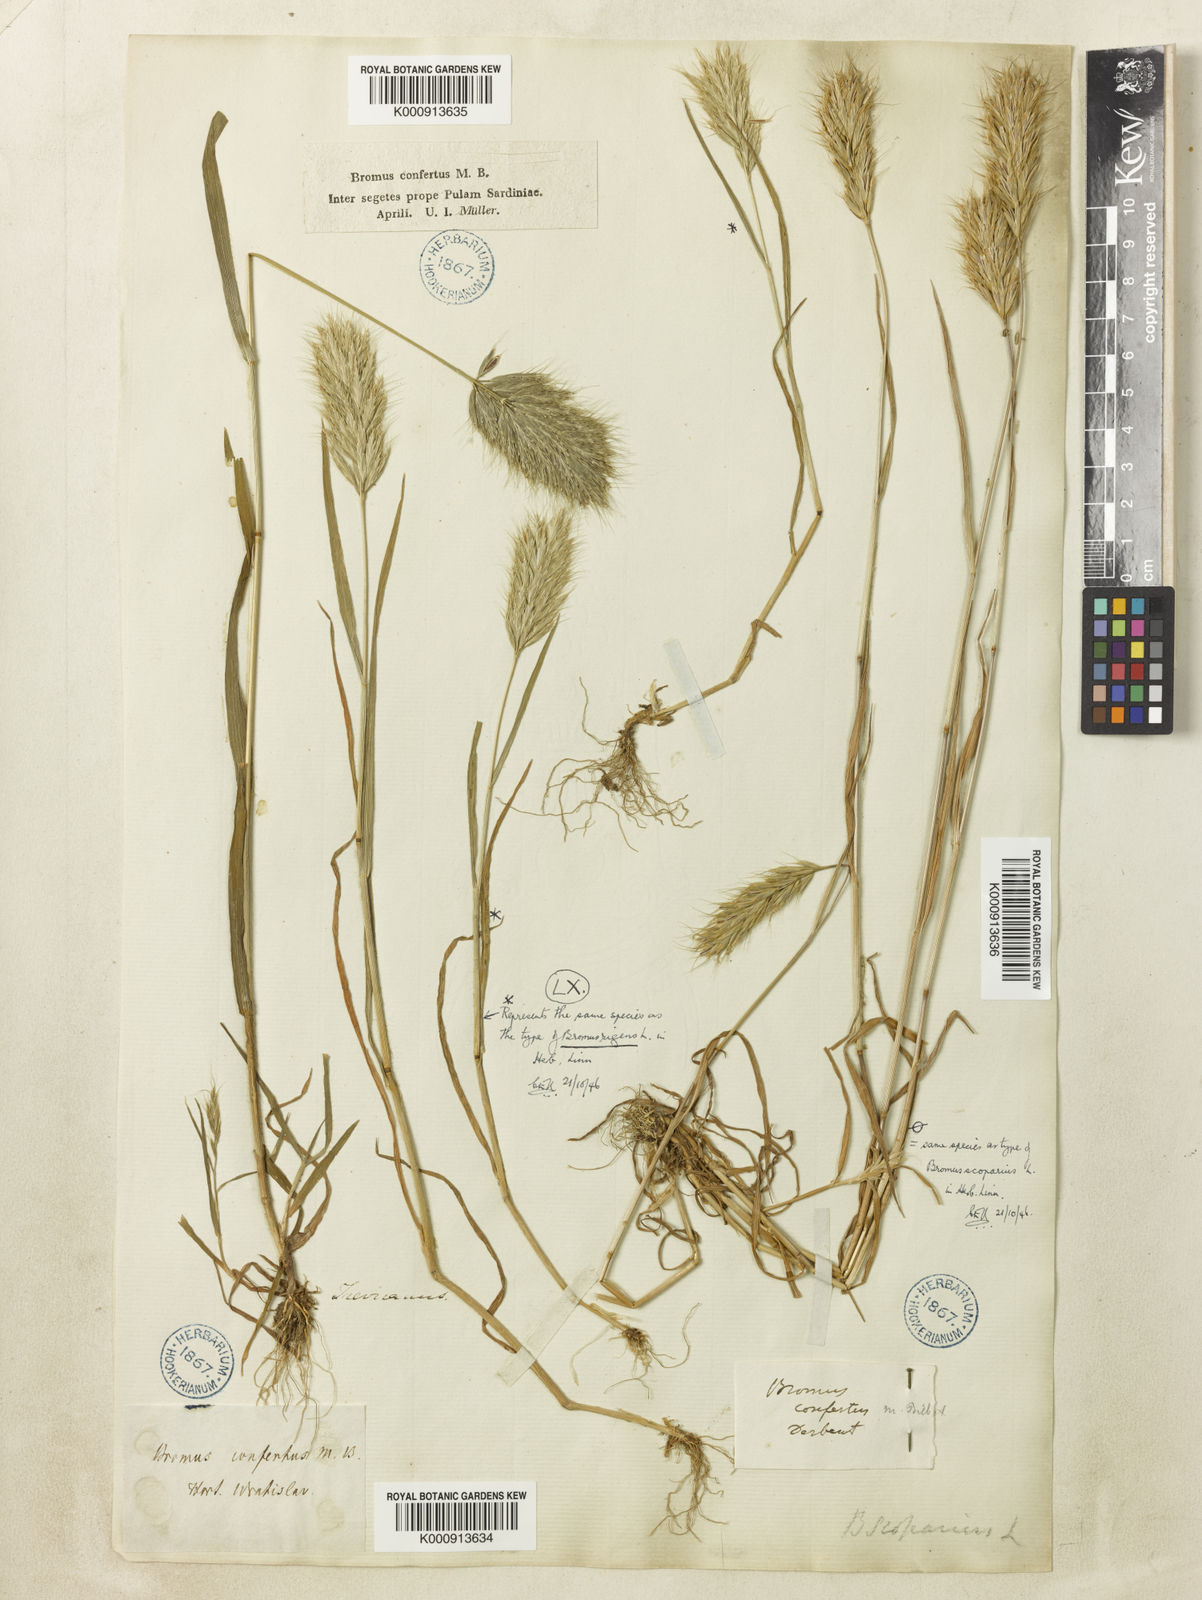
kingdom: Plantae
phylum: Tracheophyta
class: Liliopsida
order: Poales
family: Poaceae
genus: Bromus
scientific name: Bromus scoparius
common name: Broom brome
